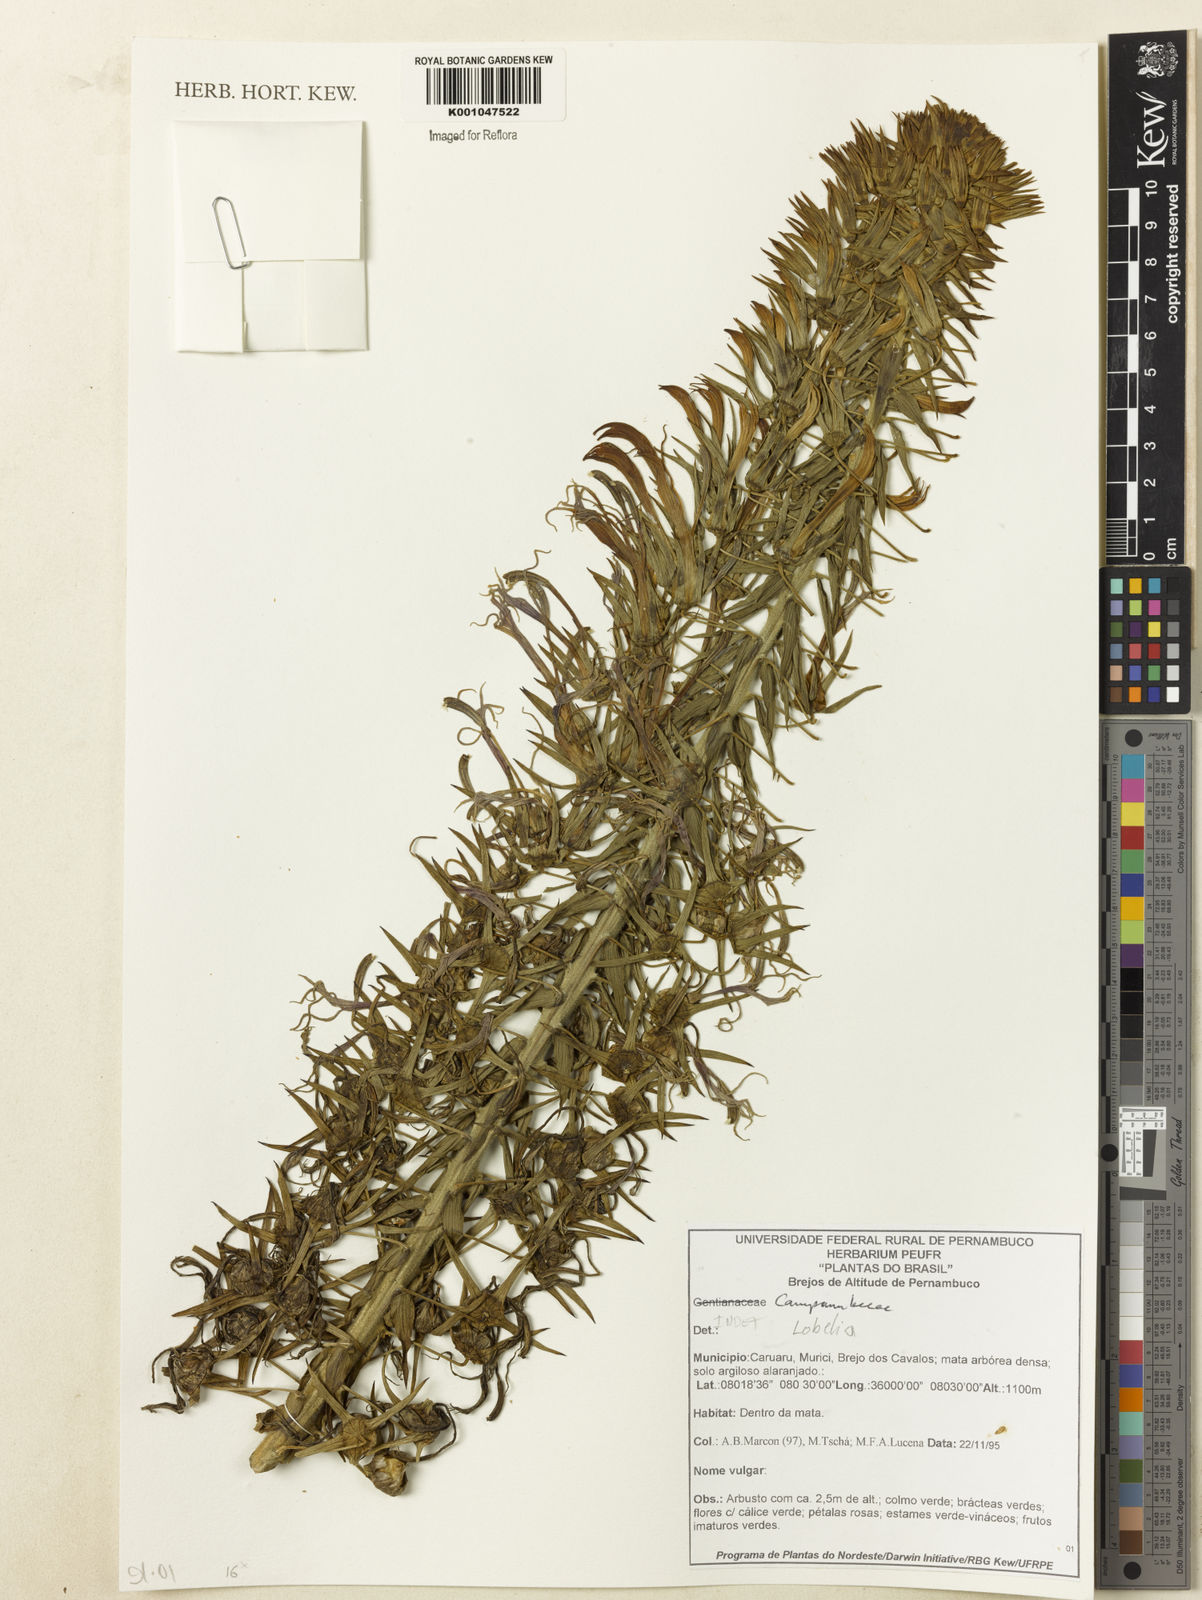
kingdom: Plantae
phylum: Tracheophyta
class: Magnoliopsida
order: Asterales
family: Campanulaceae
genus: Lobelia
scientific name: Lobelia
